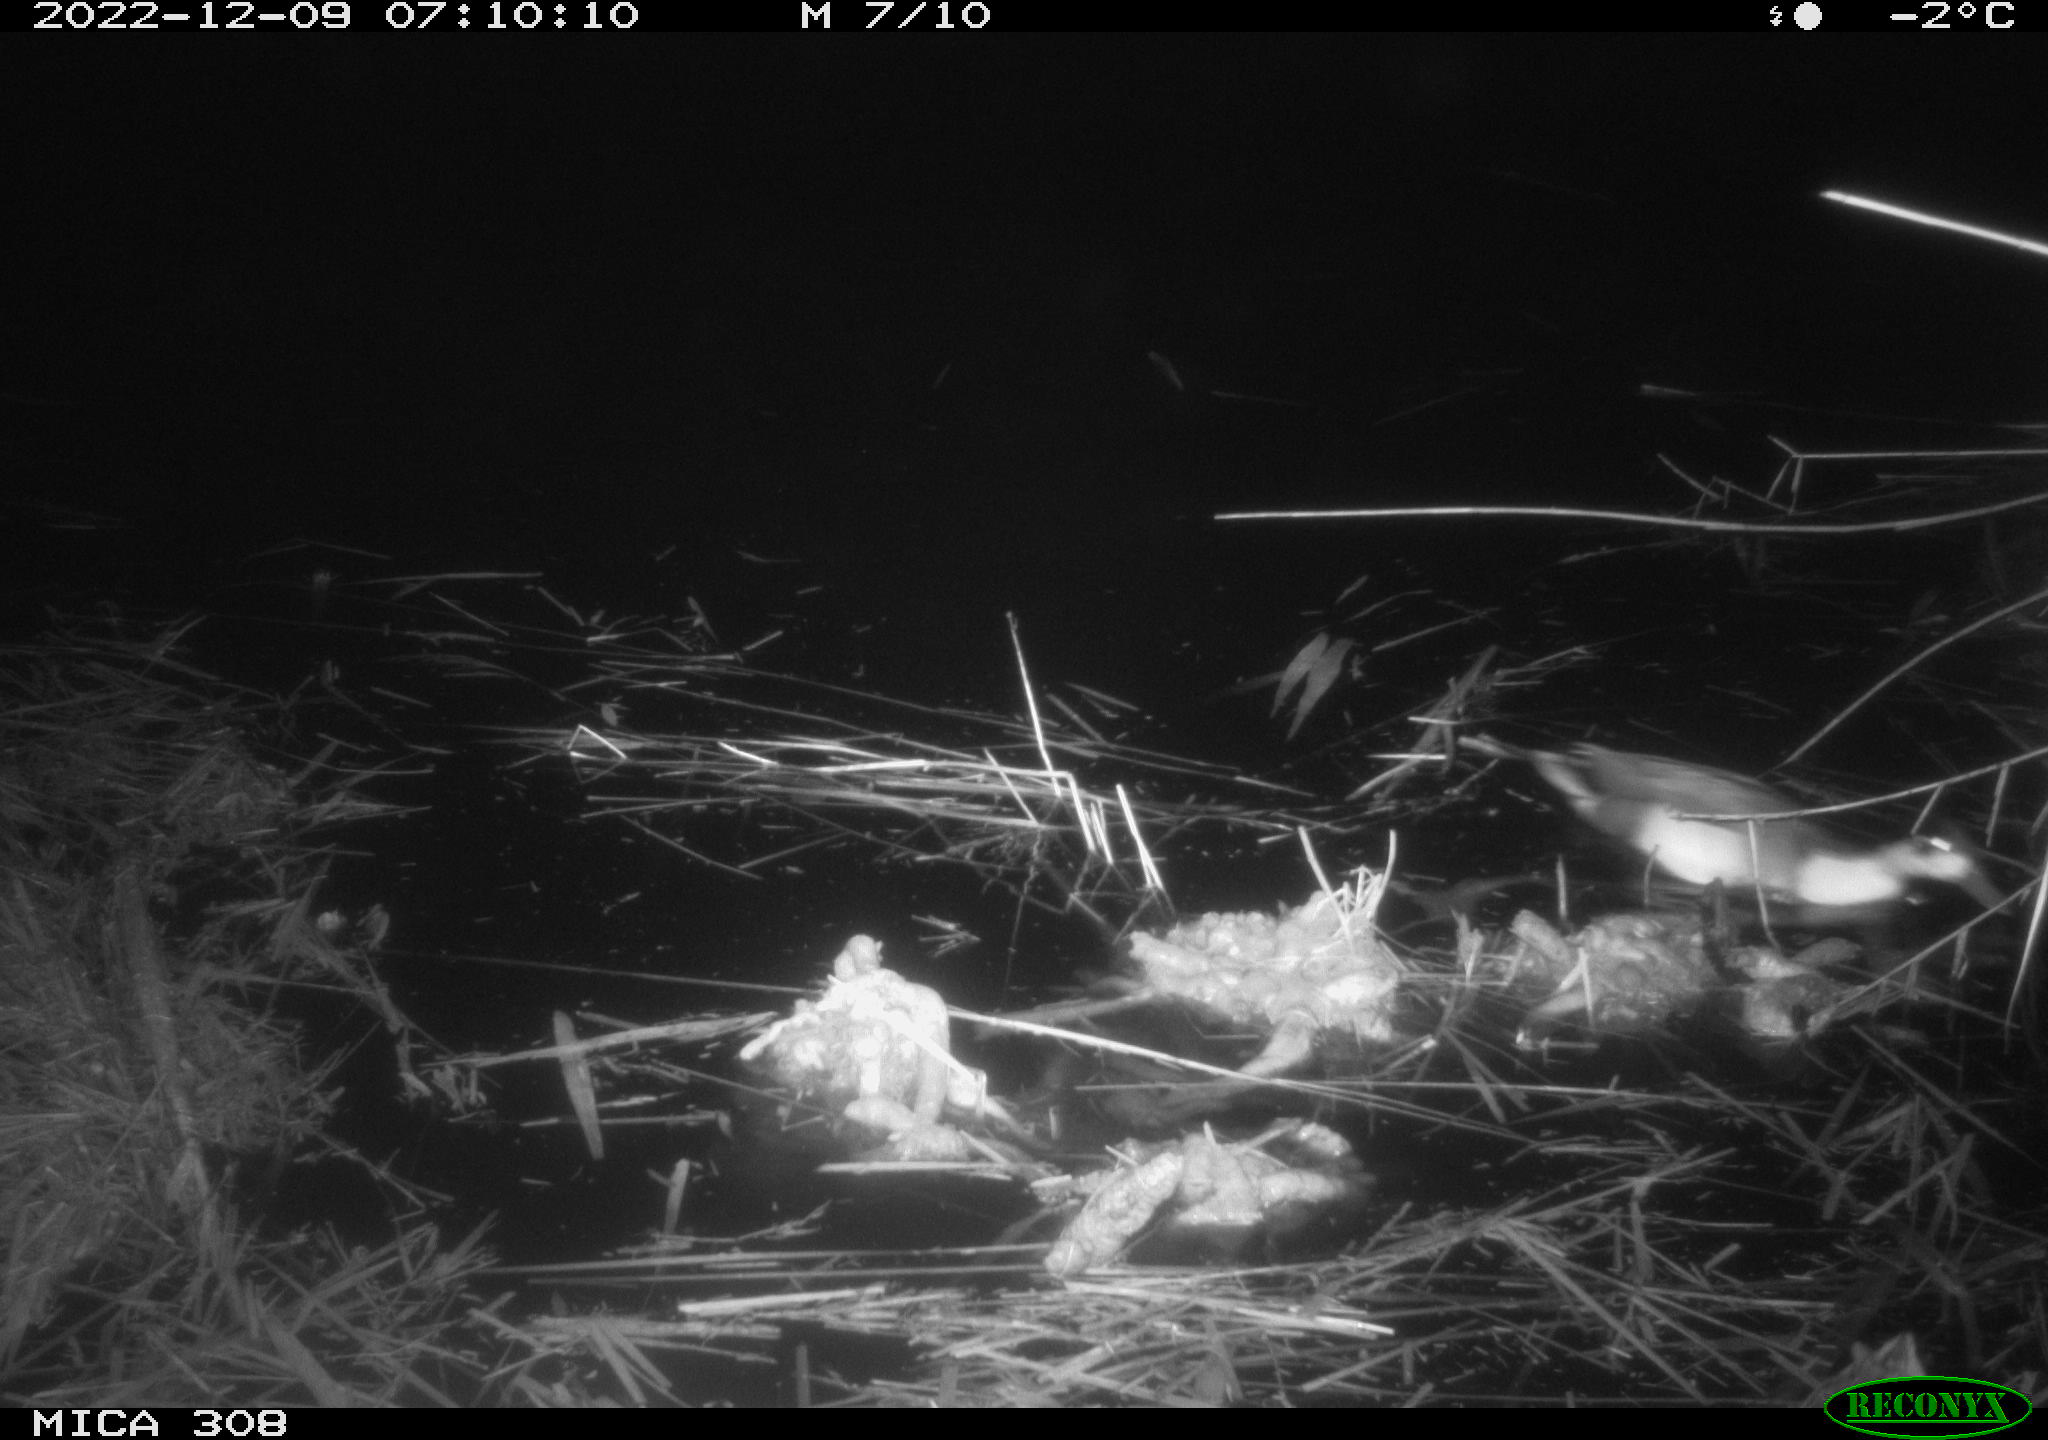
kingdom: Animalia
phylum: Chordata
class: Aves
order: Gruiformes
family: Rallidae
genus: Gallinula
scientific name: Gallinula chloropus
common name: Common moorhen
